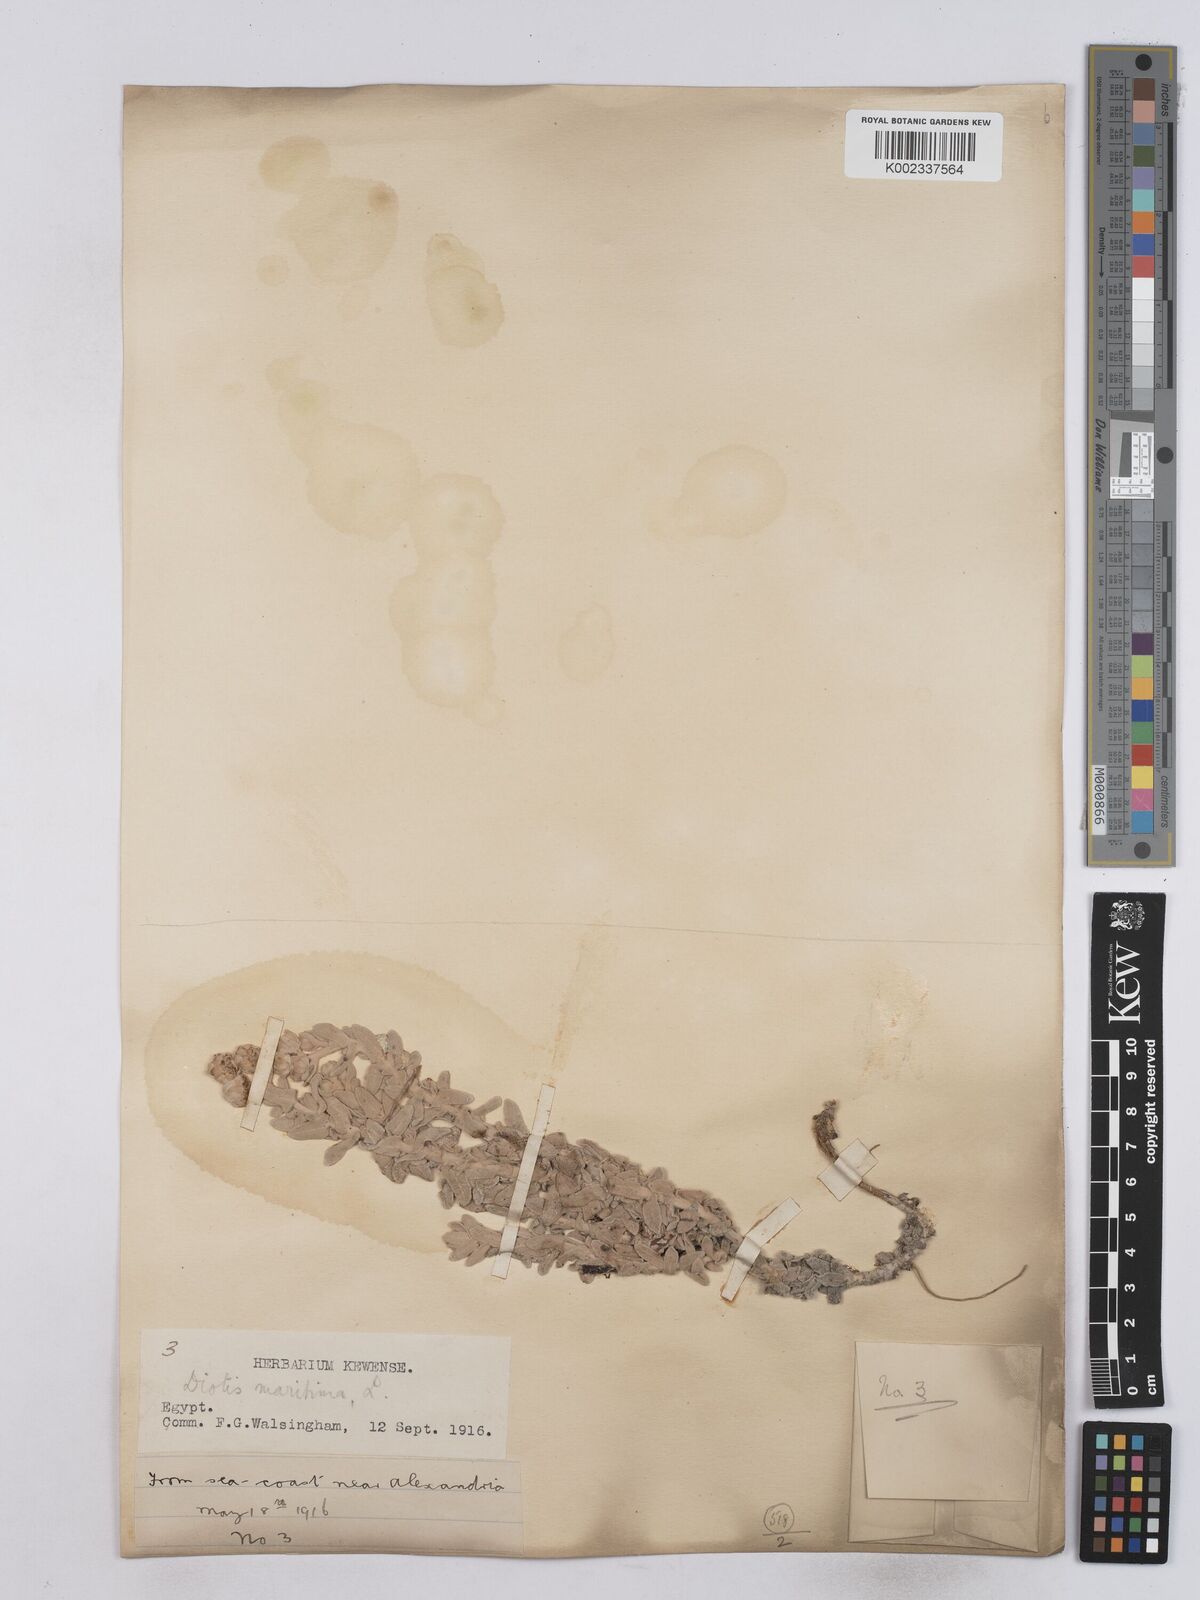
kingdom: Plantae
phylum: Tracheophyta
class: Magnoliopsida
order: Asterales
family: Asteraceae
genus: Achillea
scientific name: Achillea maritima
